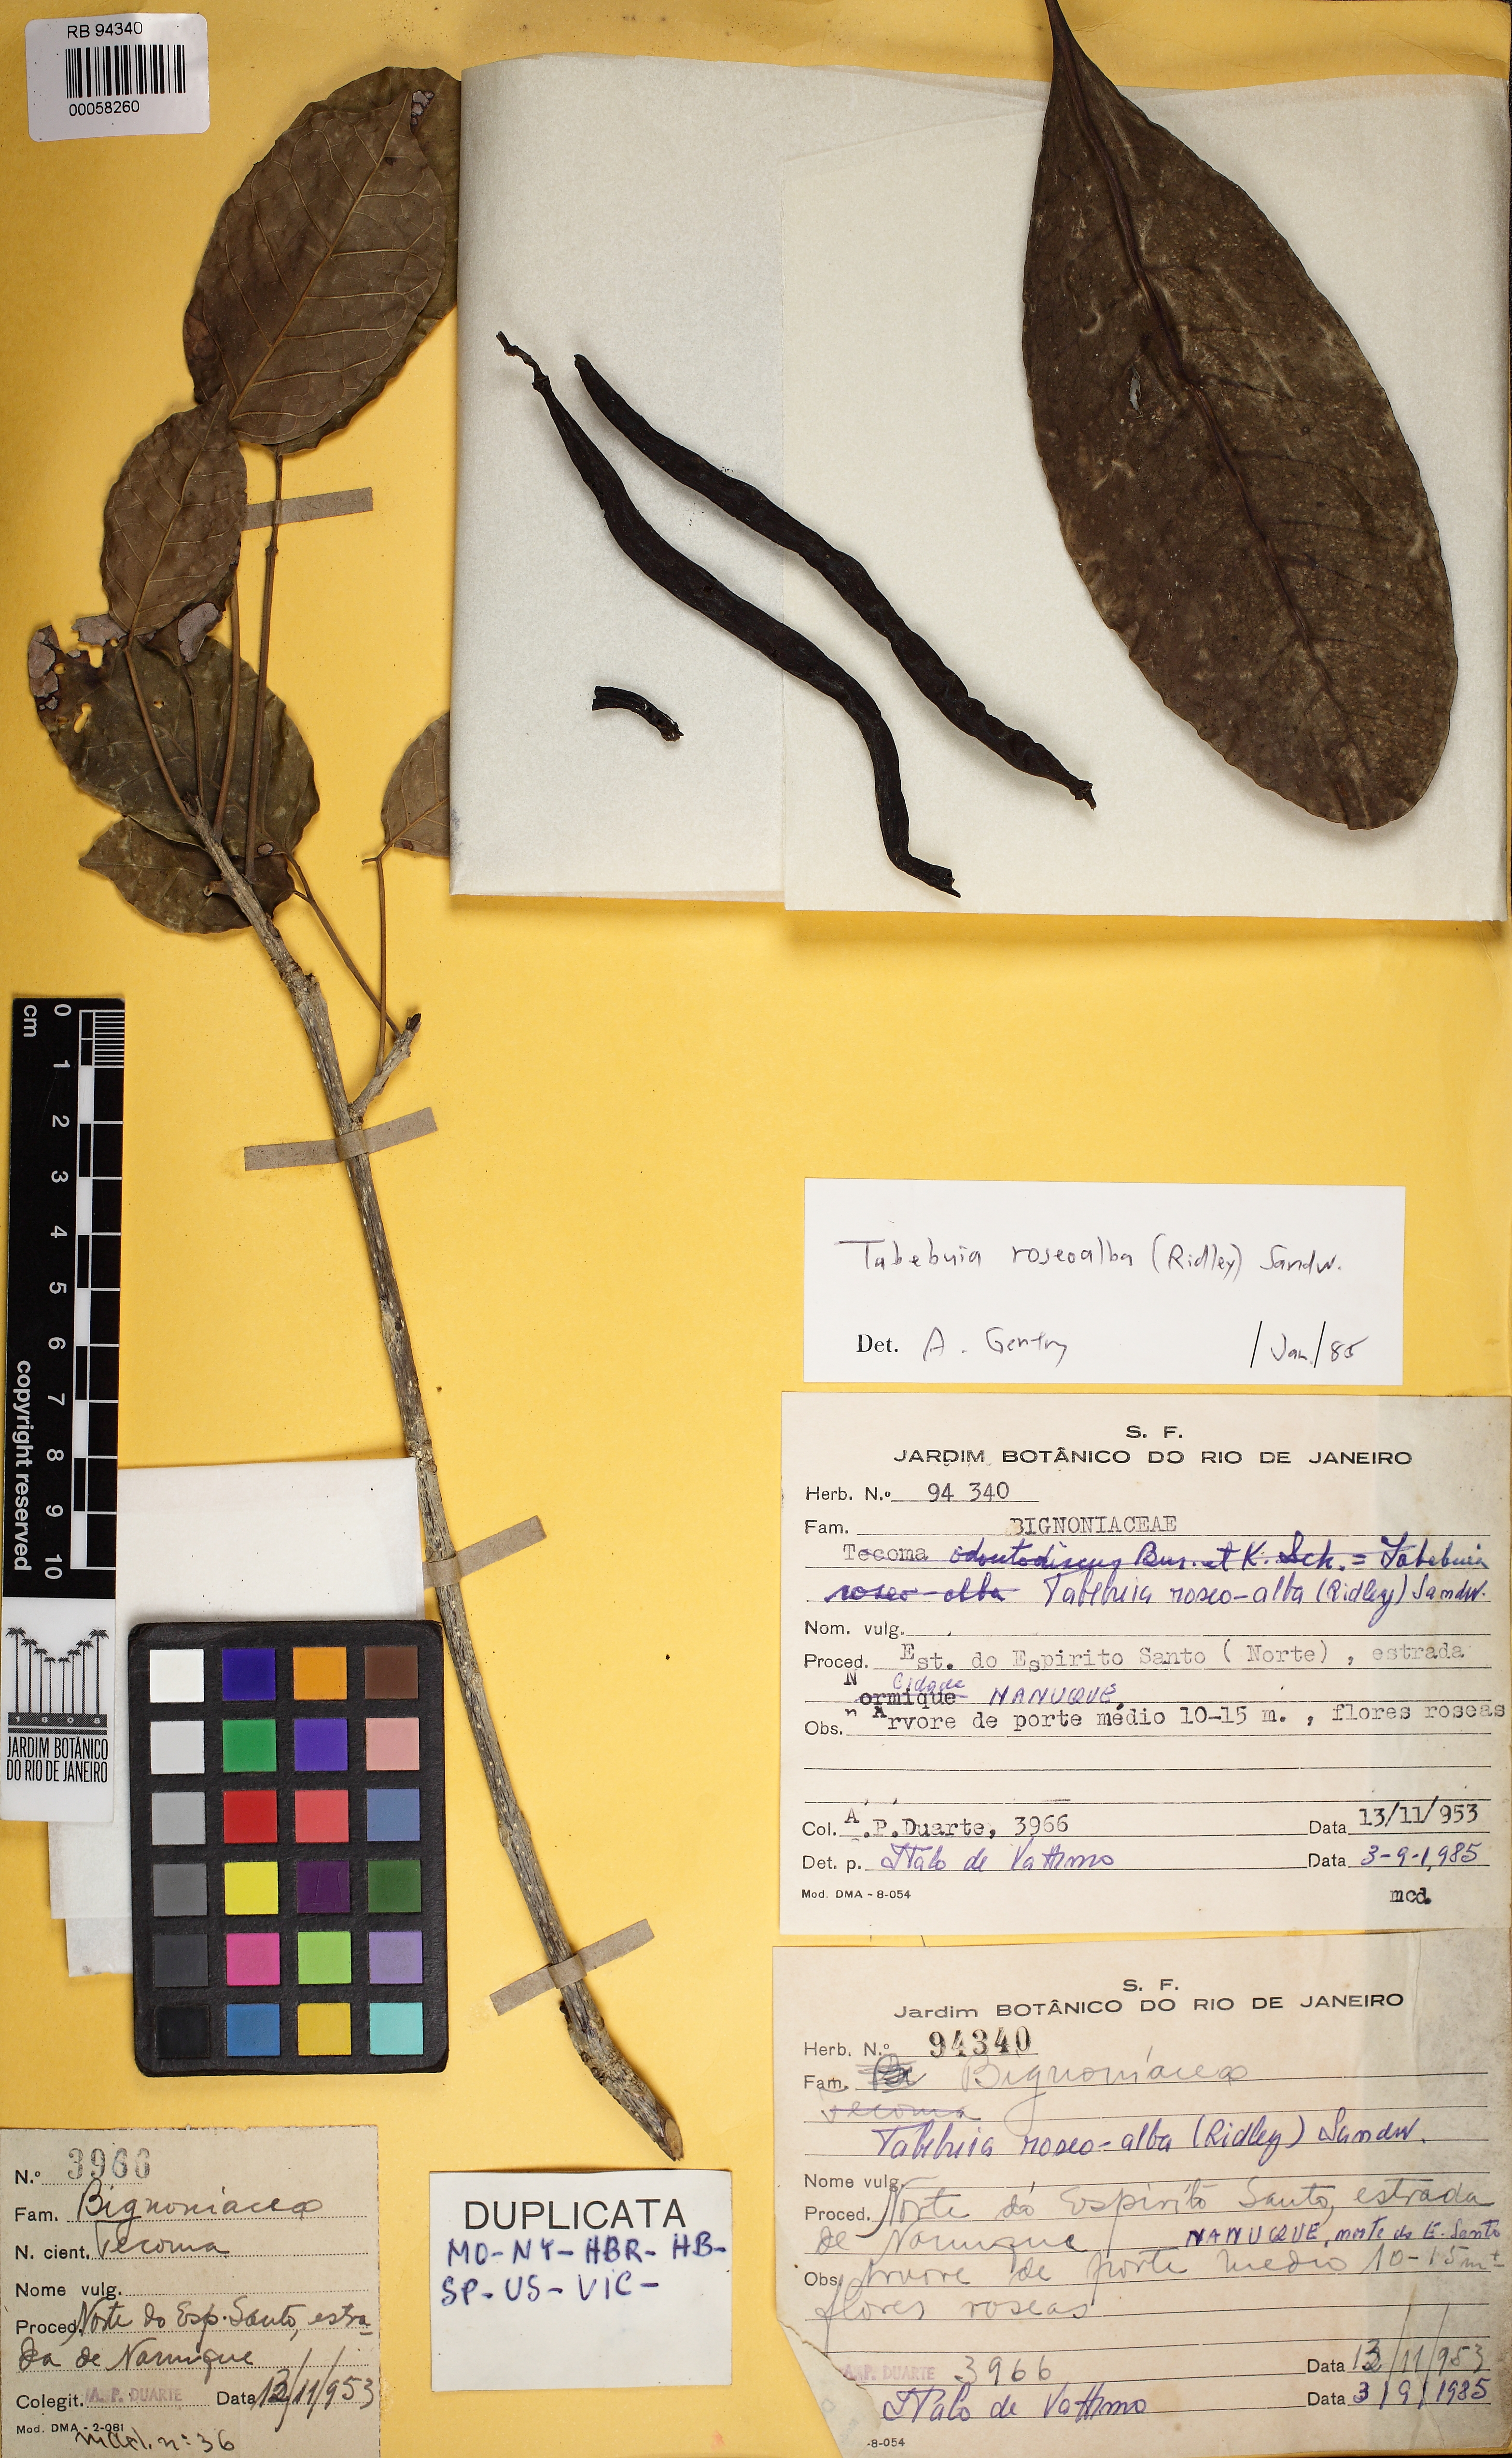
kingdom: Plantae
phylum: Tracheophyta
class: Magnoliopsida
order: Lamiales
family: Bignoniaceae
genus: Tabebuia
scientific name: Tabebuia roseoalba
